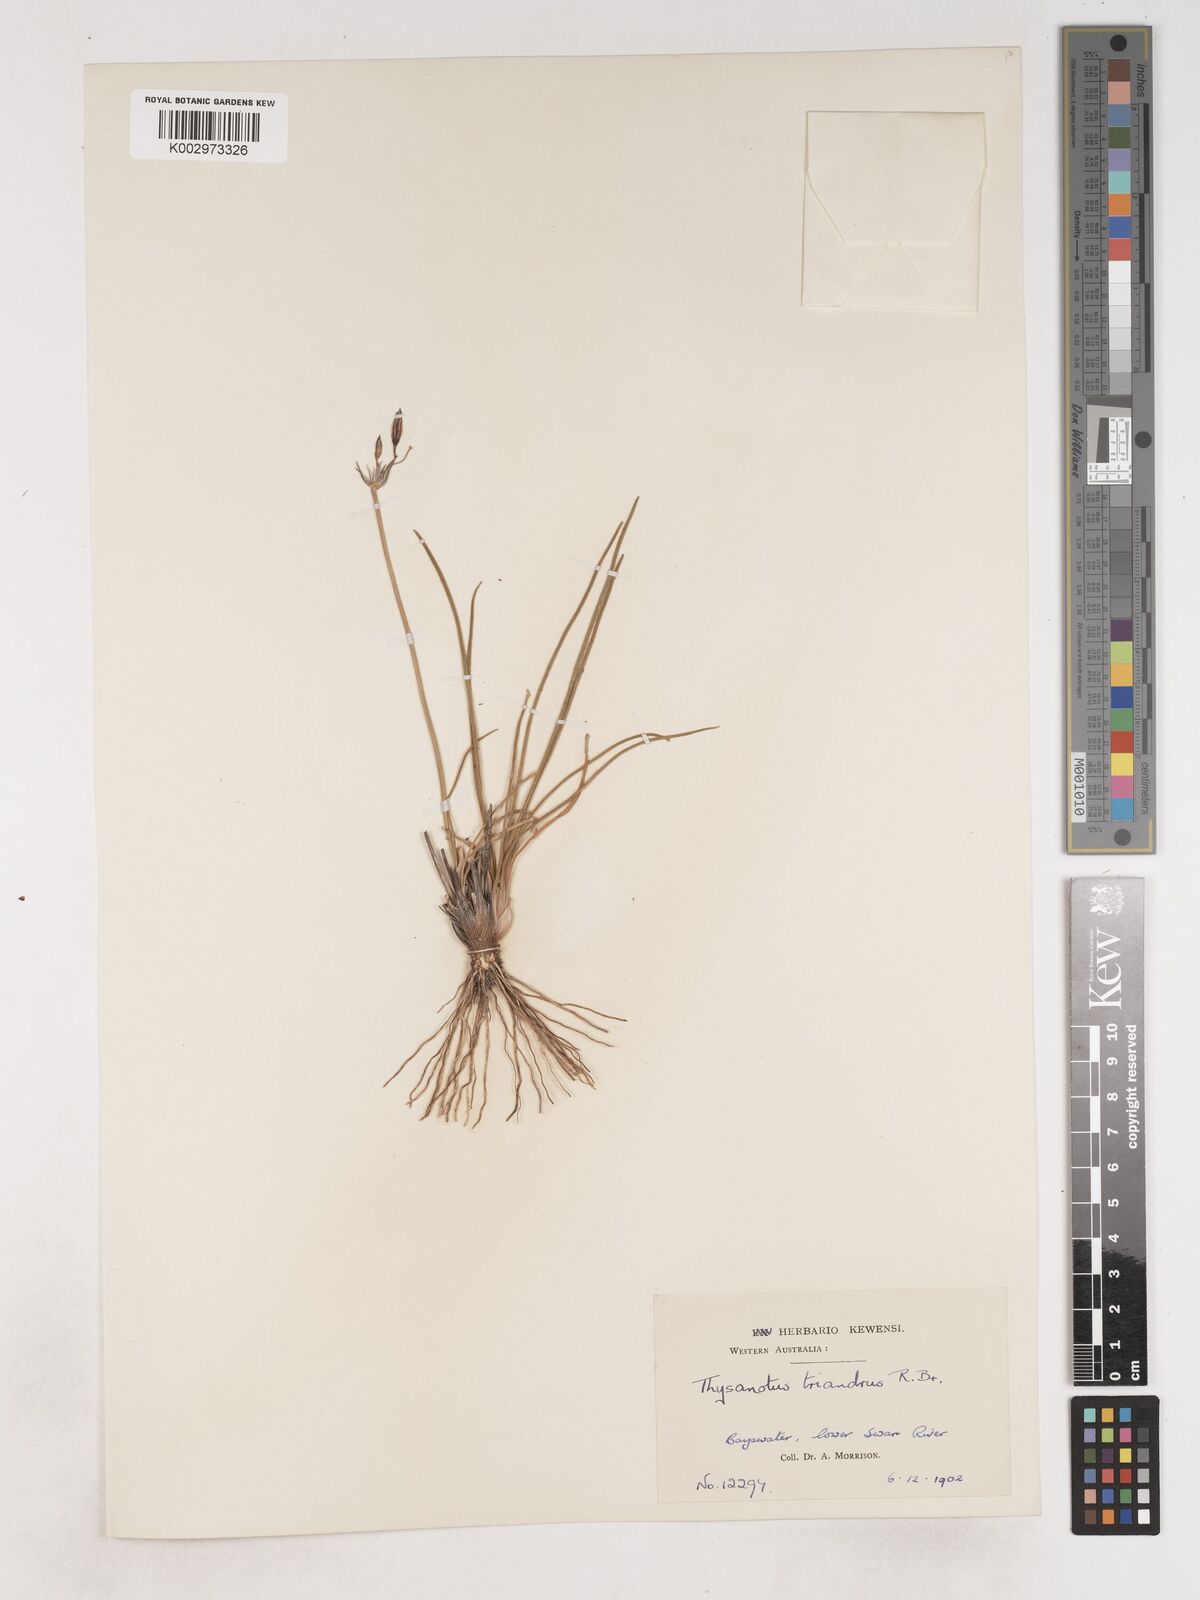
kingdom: Plantae
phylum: Tracheophyta
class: Liliopsida
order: Asparagales
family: Asparagaceae
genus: Thysanotus
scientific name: Thysanotus triandrus
